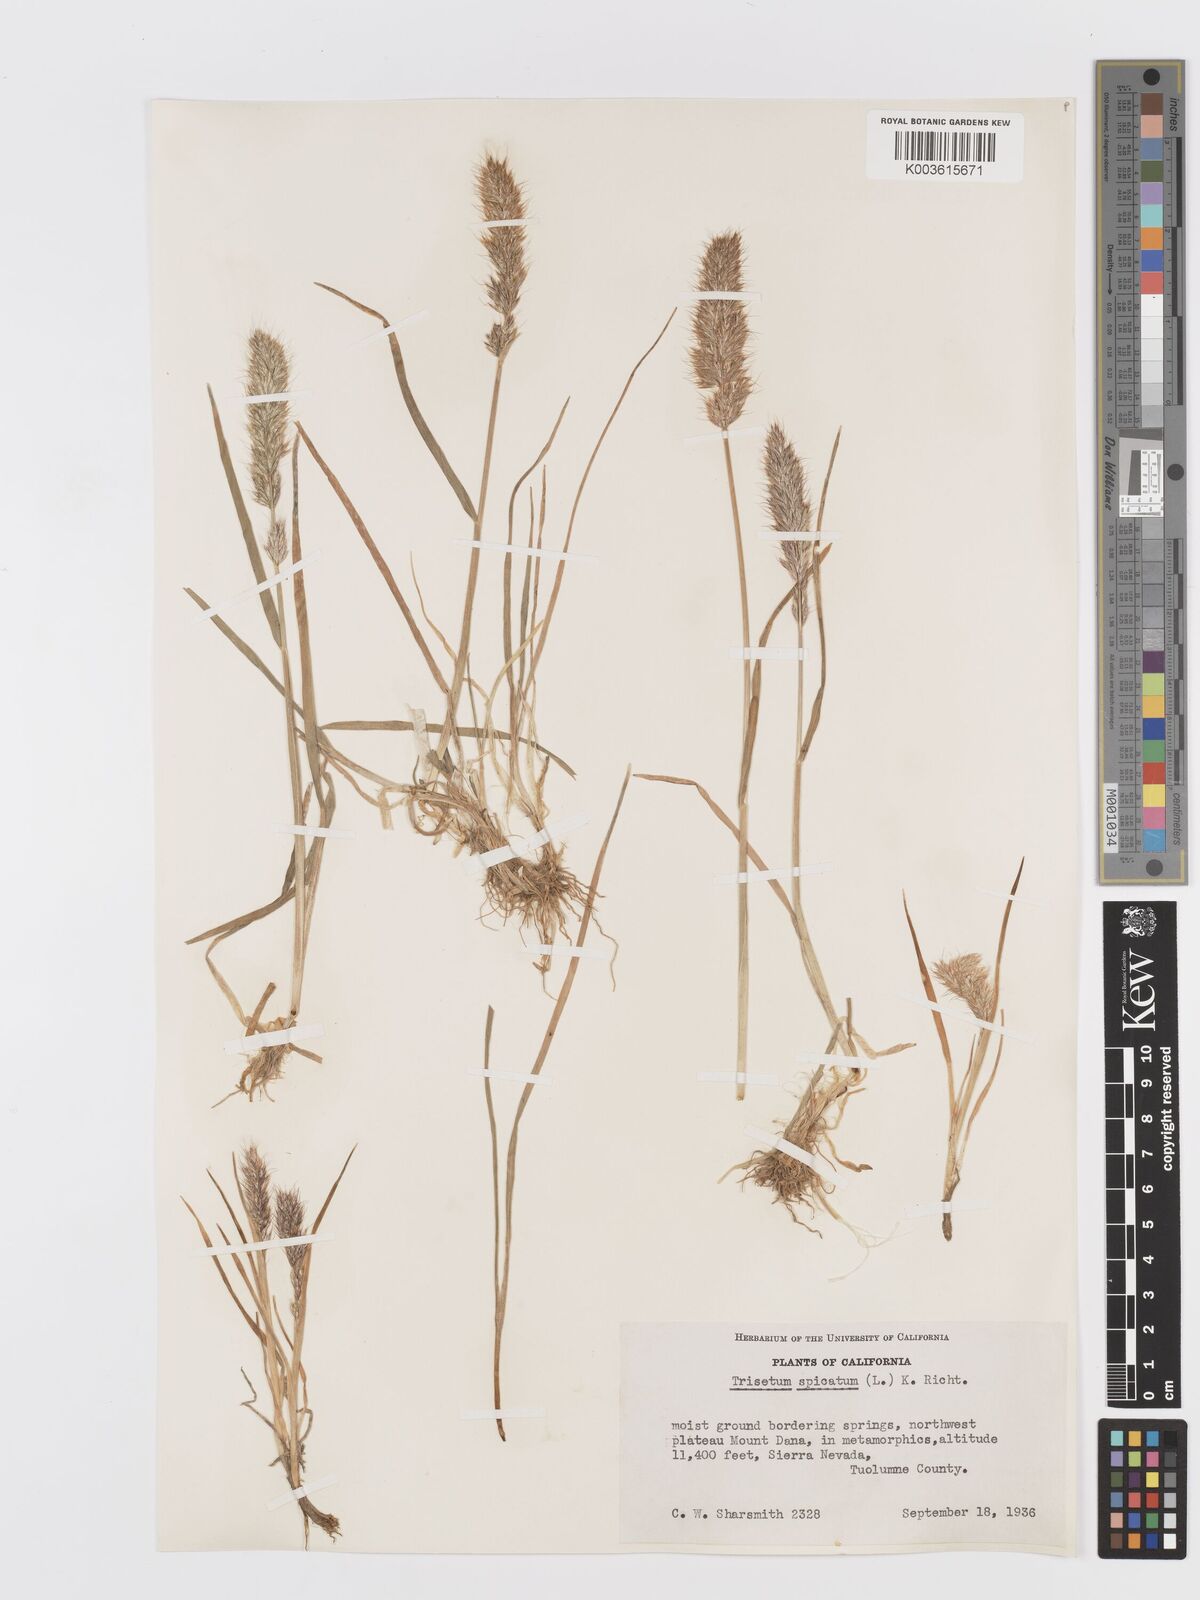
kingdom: Plantae
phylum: Tracheophyta
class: Liliopsida
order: Poales
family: Poaceae
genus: Koeleria
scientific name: Koeleria spicata
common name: Mountain trisetum
